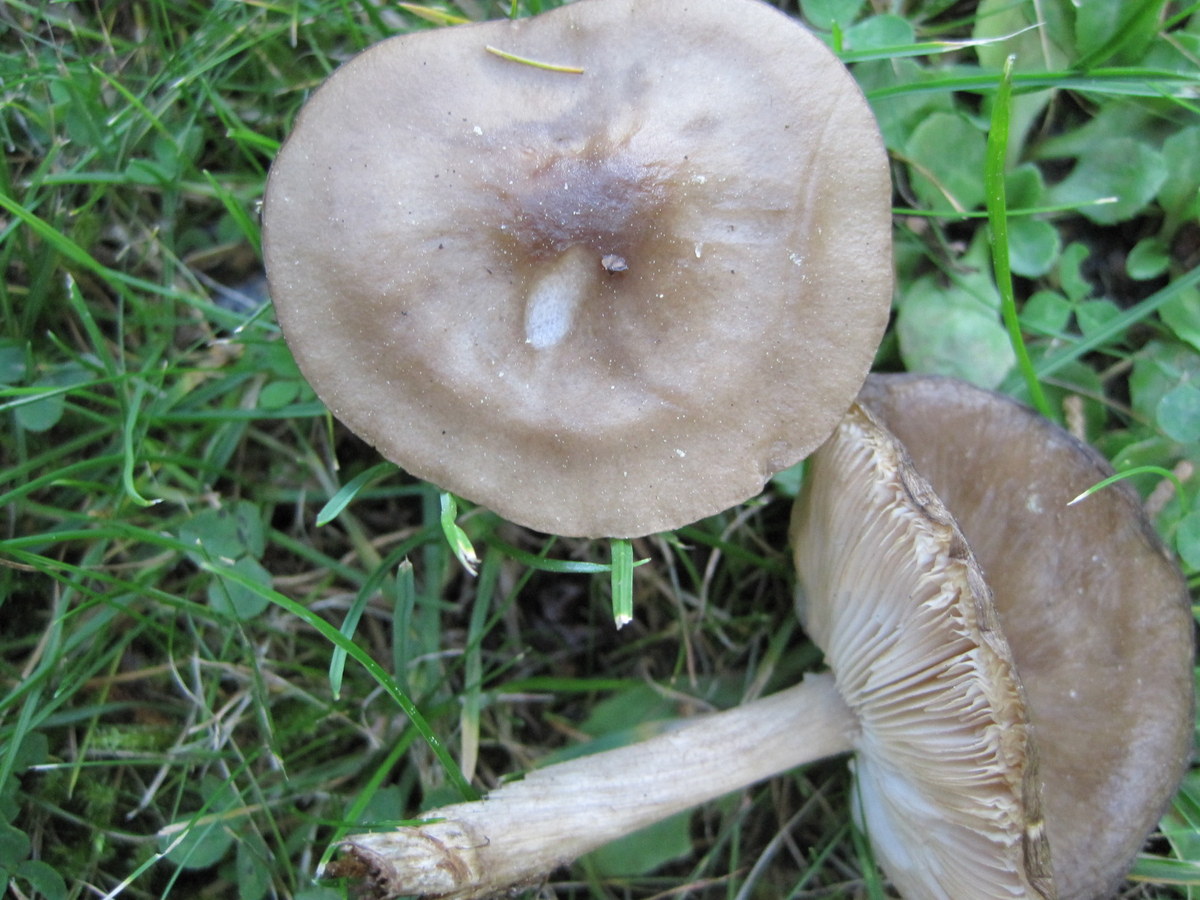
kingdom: Fungi
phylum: Basidiomycota
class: Agaricomycetes
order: Agaricales
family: Tricholomataceae
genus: Melanoleuca
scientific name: Melanoleuca exscissa
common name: gusten munkehat
